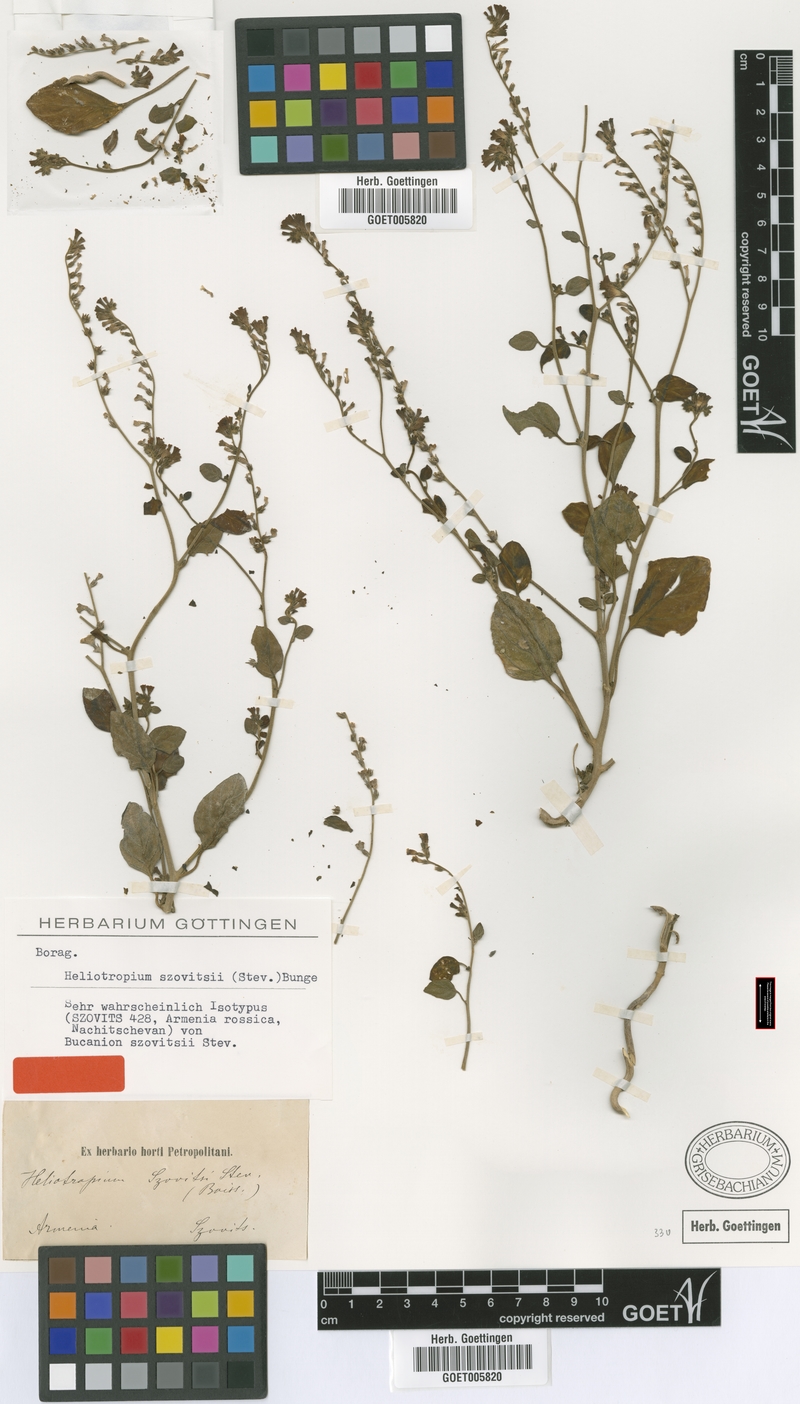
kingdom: Plantae
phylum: Tracheophyta
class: Magnoliopsida
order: Boraginales
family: Heliotropiaceae
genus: Heliotropium
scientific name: Heliotropium szovitsii
